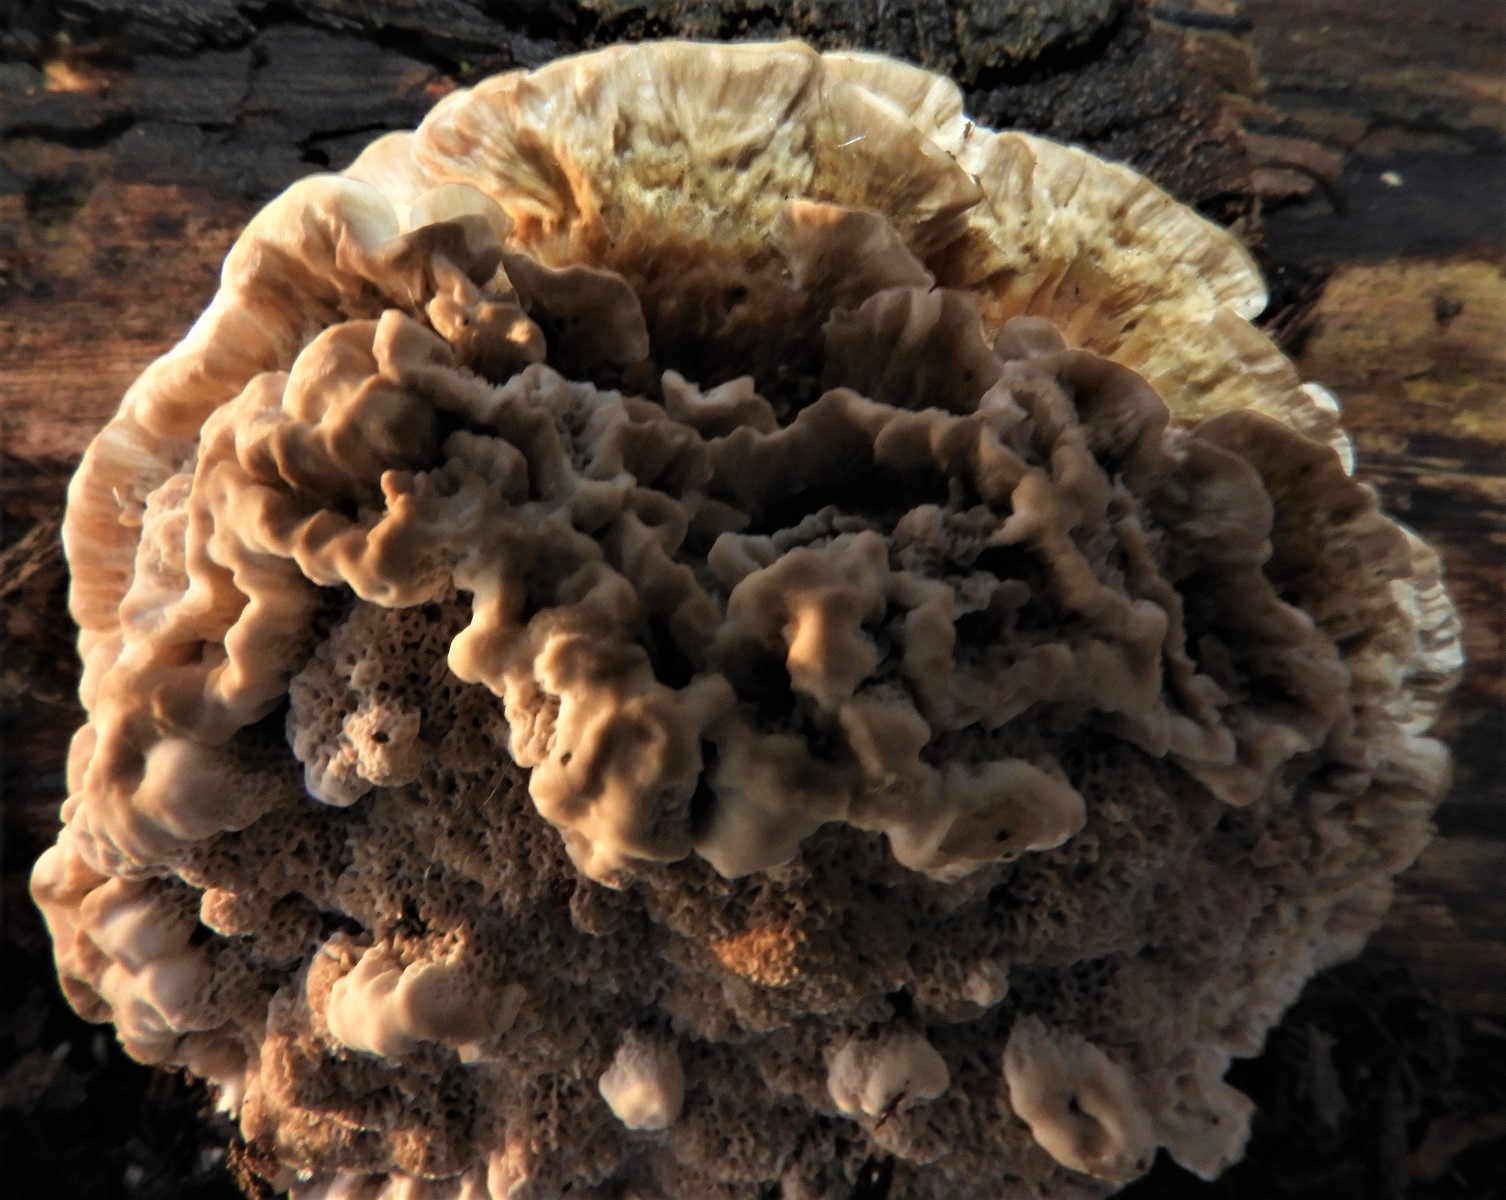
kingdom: Fungi
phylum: Basidiomycota
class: Agaricomycetes
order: Polyporales
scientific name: Polyporales
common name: poresvampordenen
